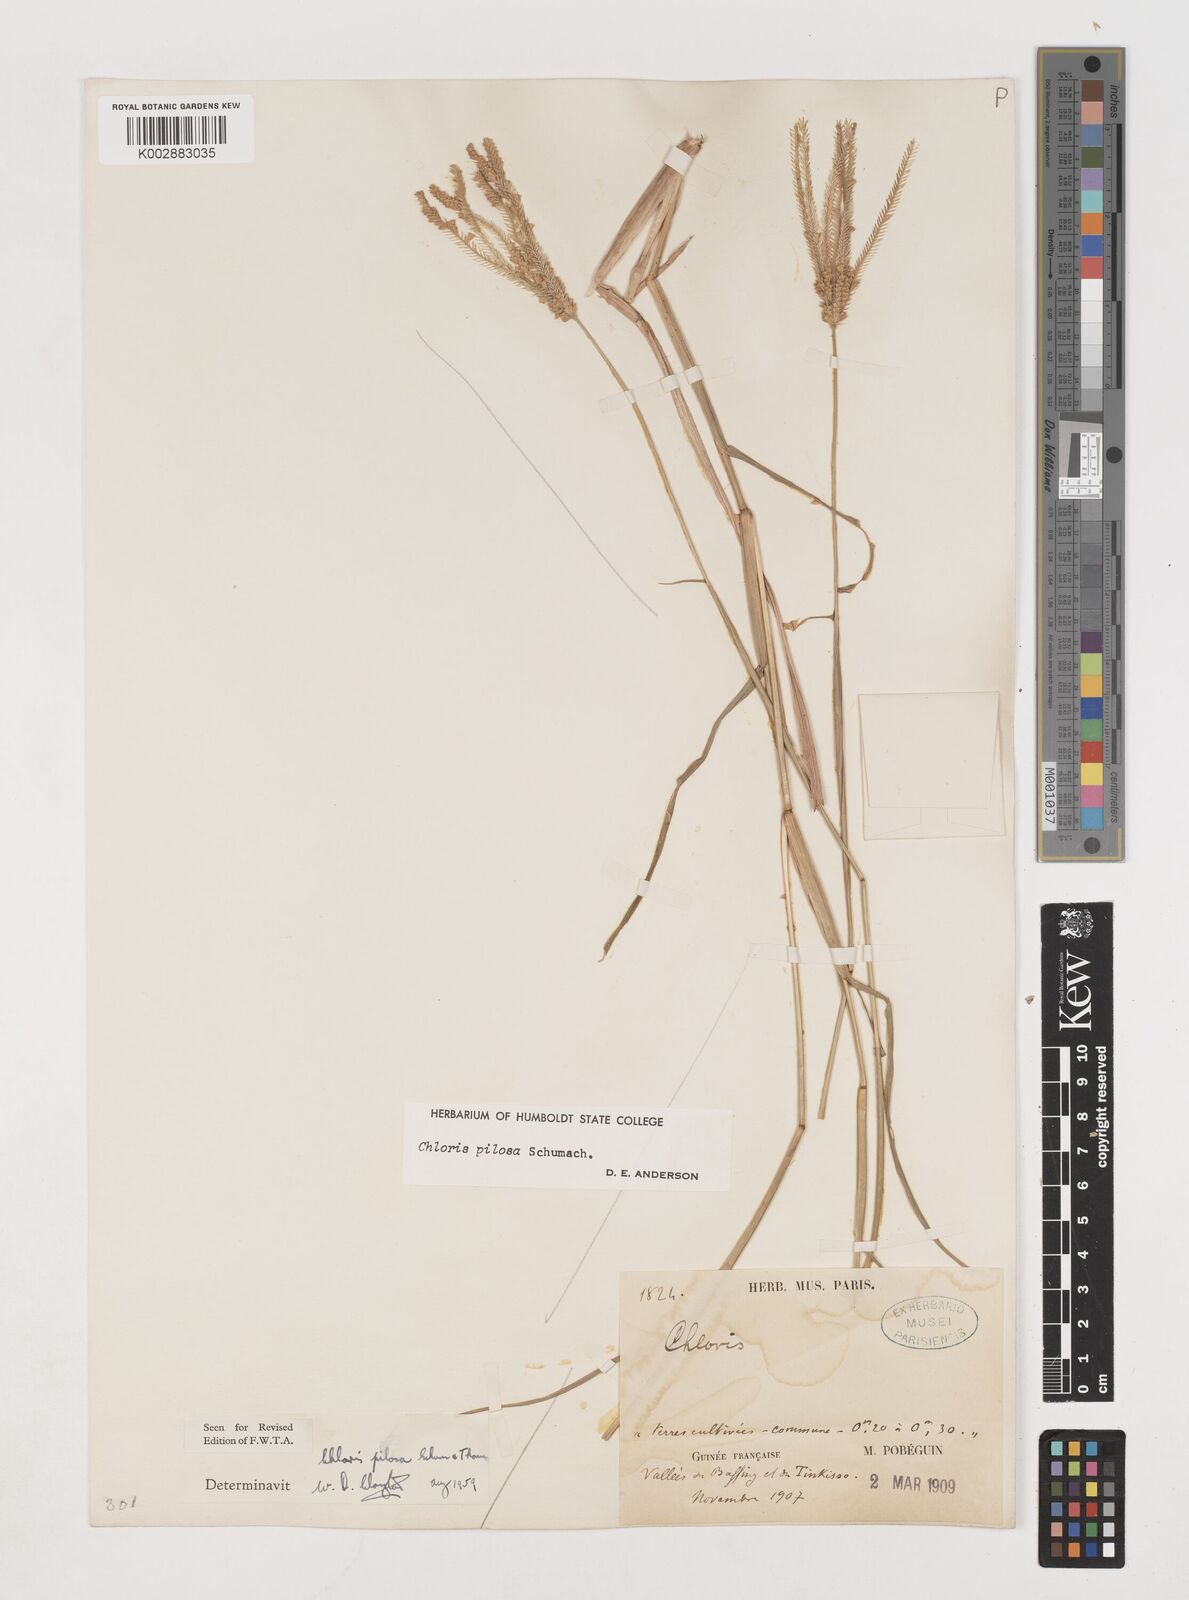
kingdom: Plantae
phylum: Tracheophyta
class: Liliopsida
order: Poales
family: Poaceae
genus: Chloris
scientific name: Chloris pilosa
